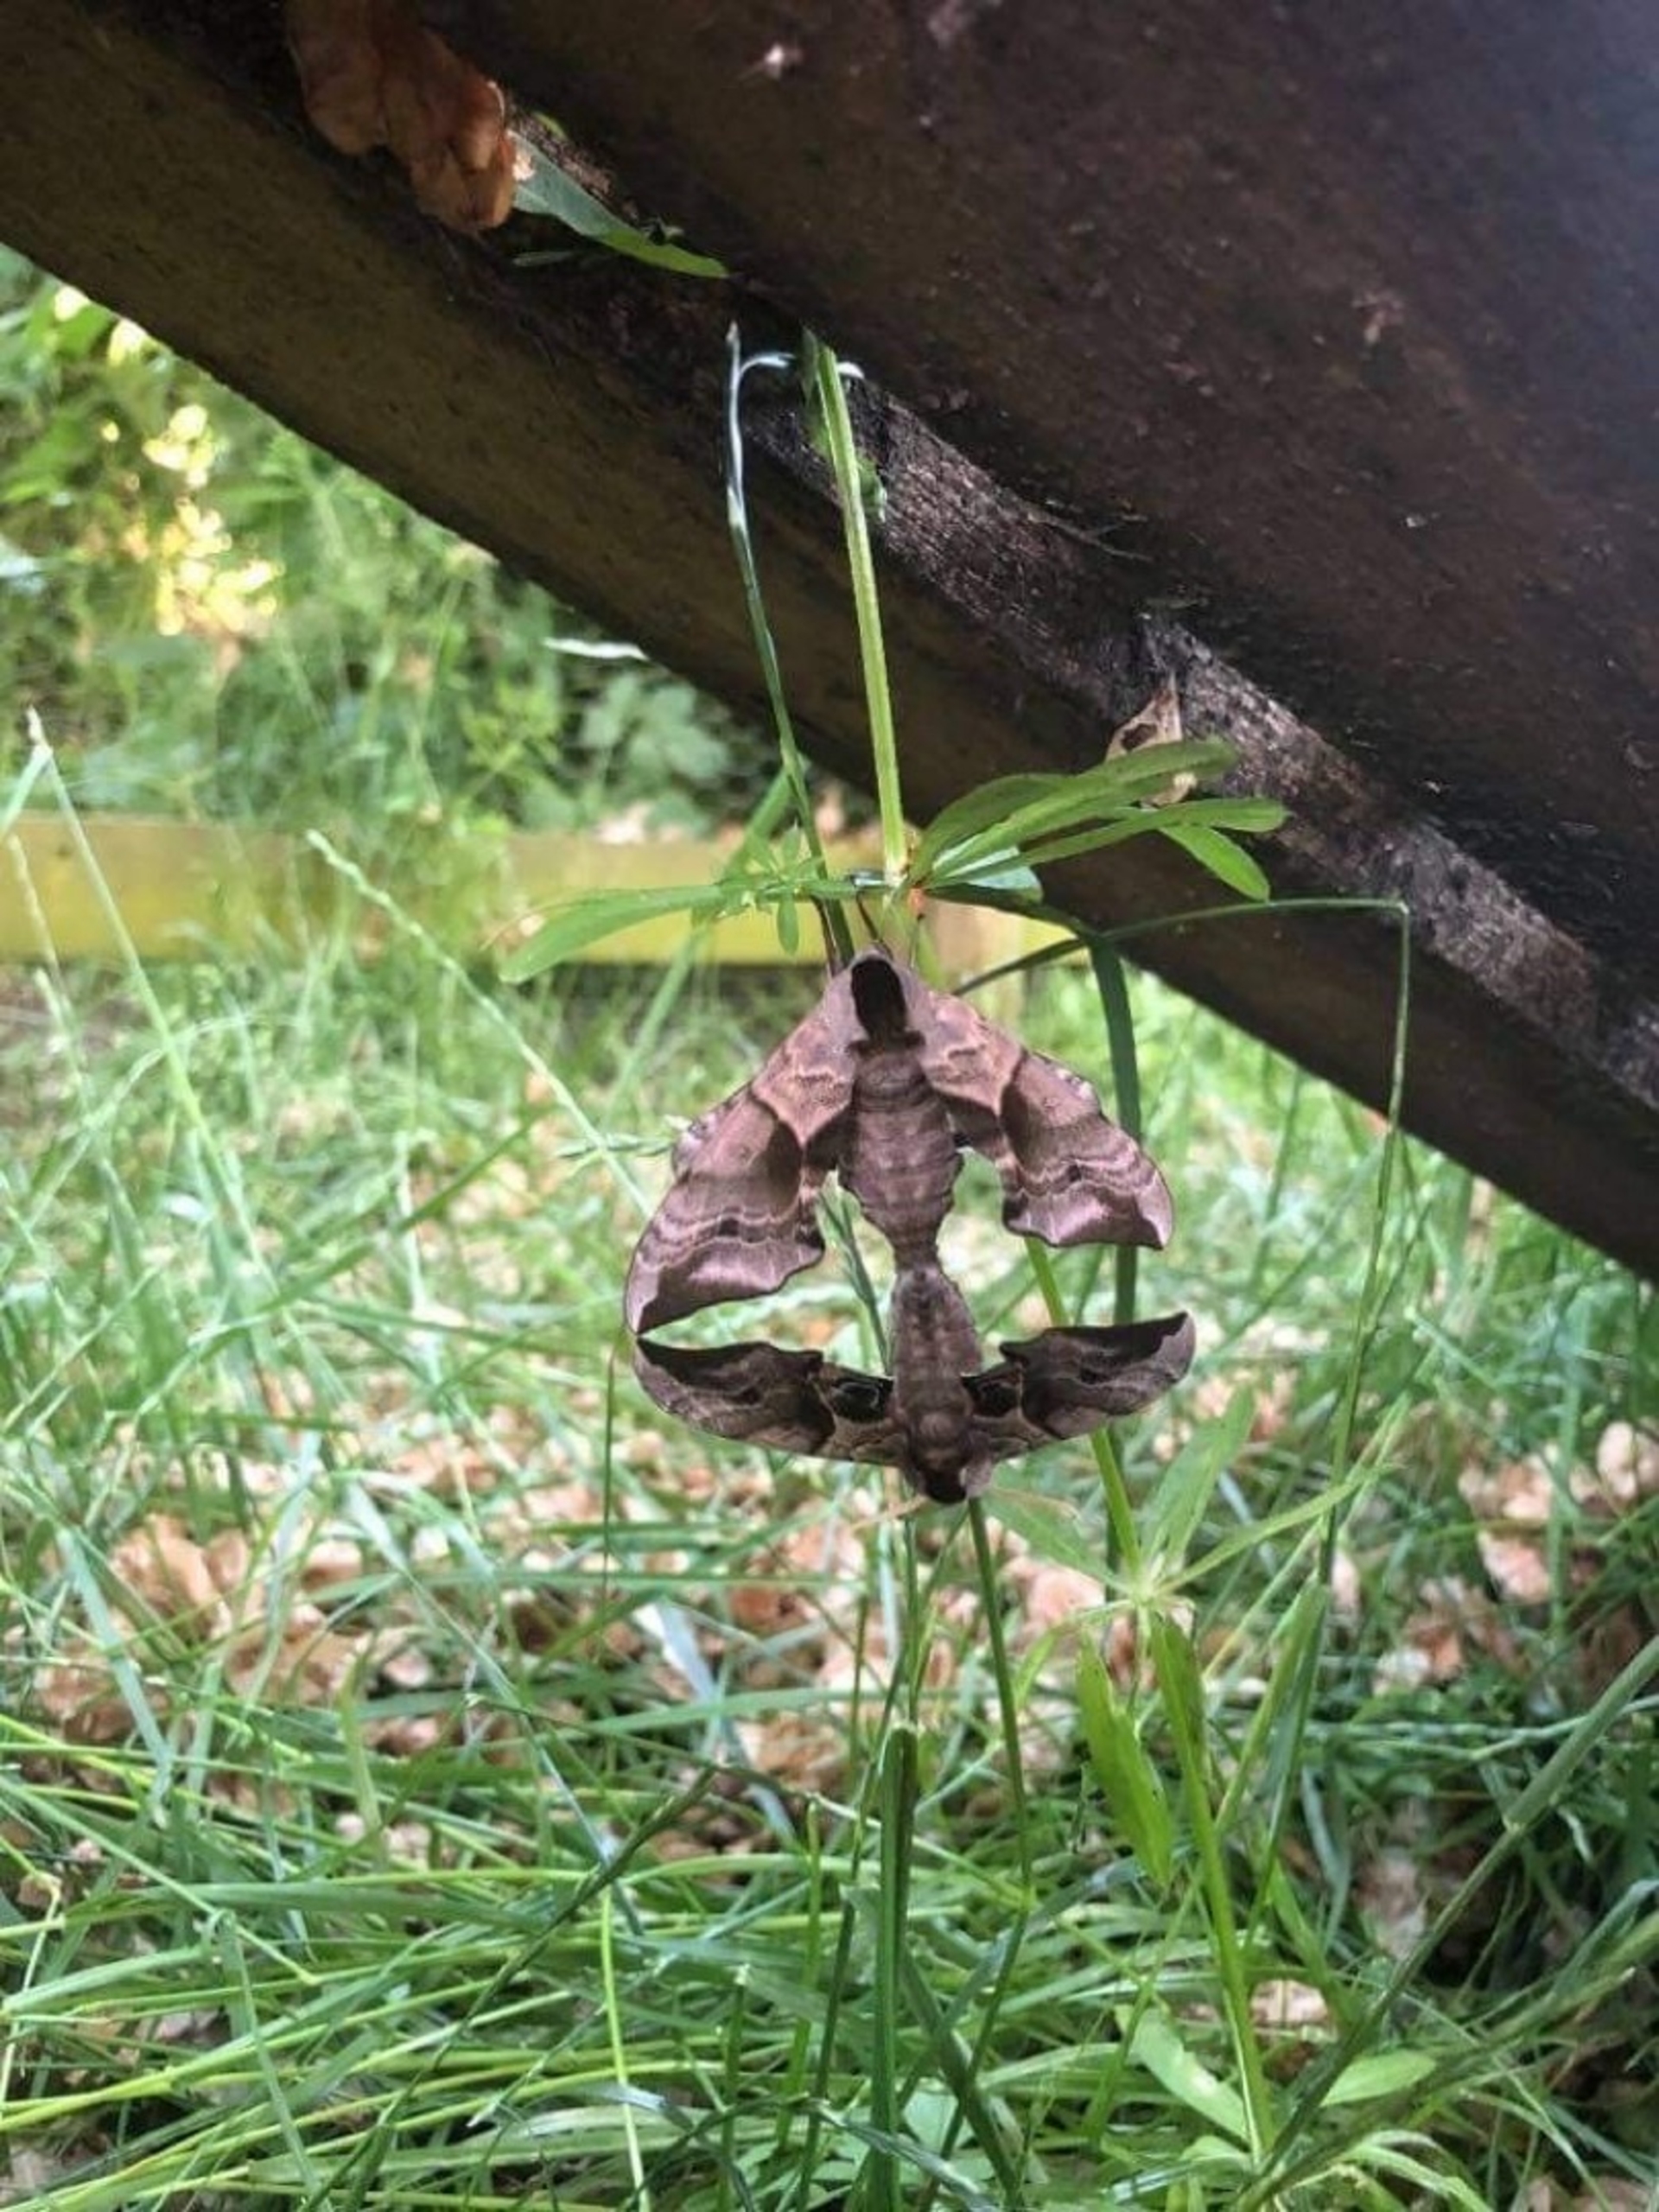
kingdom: Animalia
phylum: Arthropoda
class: Insecta
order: Lepidoptera
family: Sphingidae
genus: Smerinthus
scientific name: Smerinthus ocellata
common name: Aftenpåfugleøje
